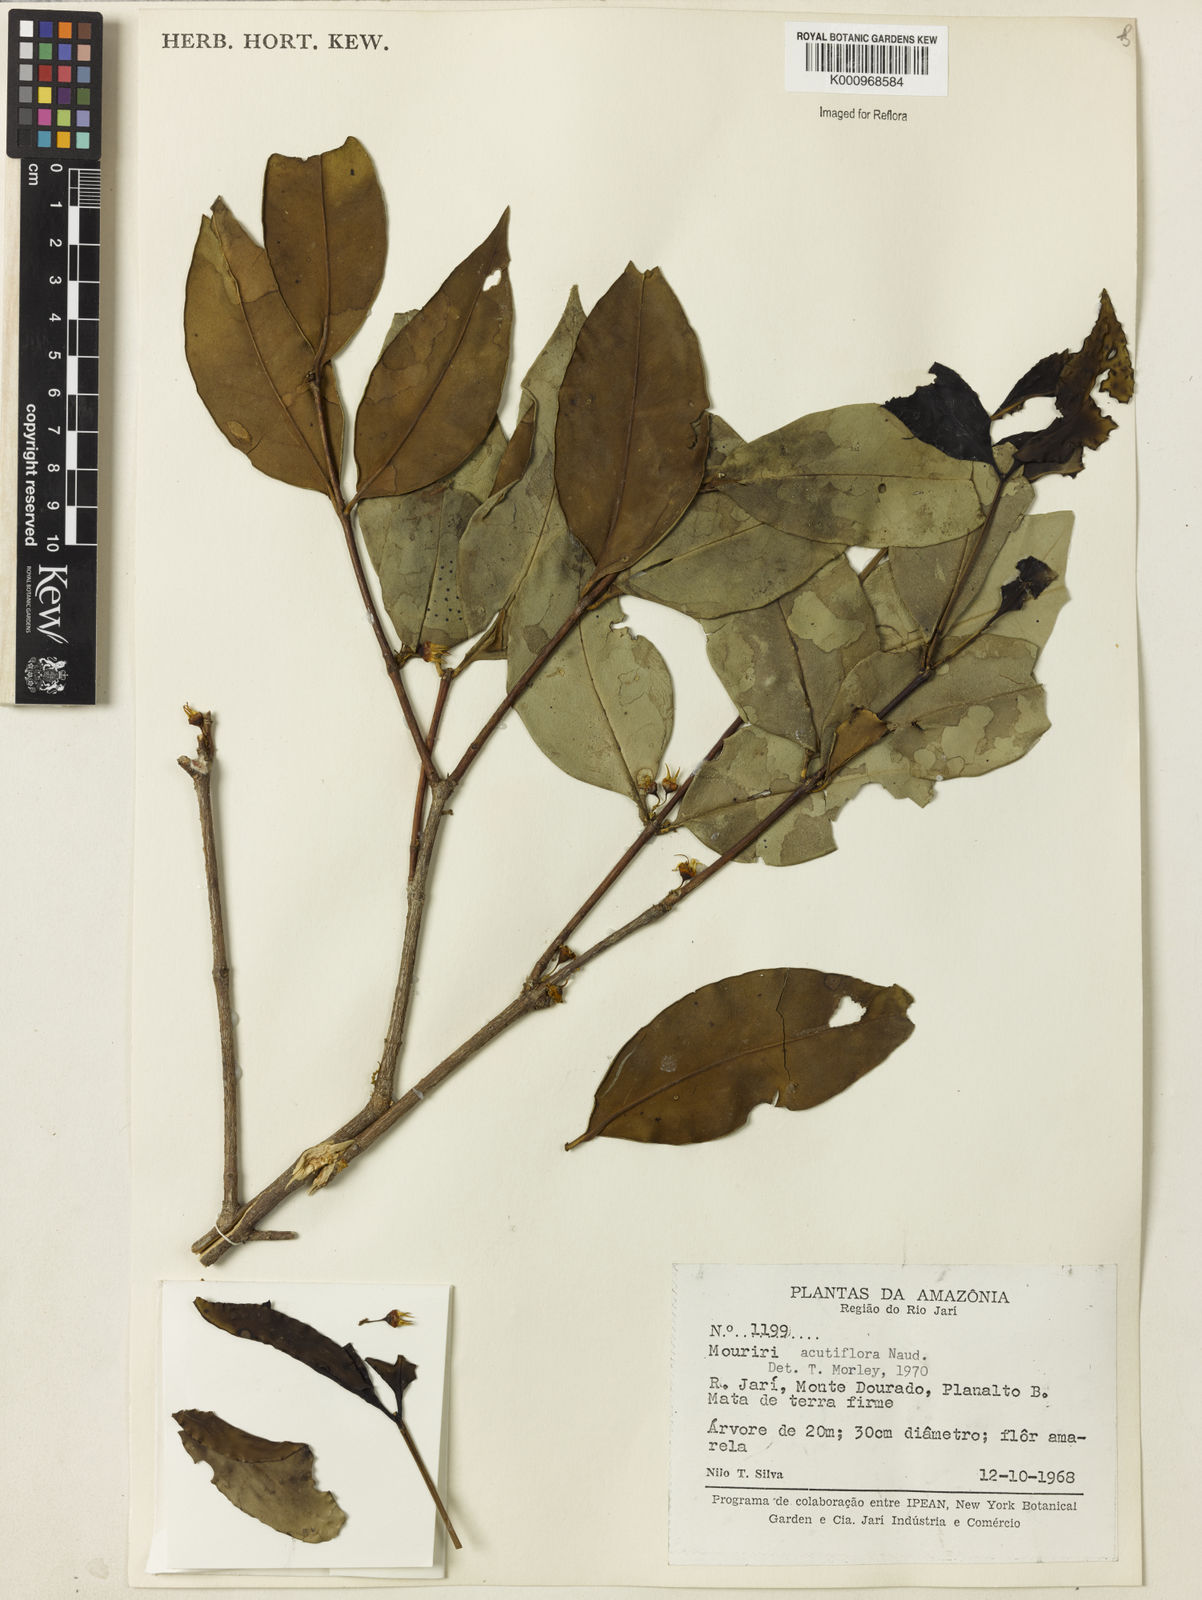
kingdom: Plantae
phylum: Tracheophyta
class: Magnoliopsida
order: Myrtales
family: Melastomataceae
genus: Mouriri
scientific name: Mouriri acutiflora
